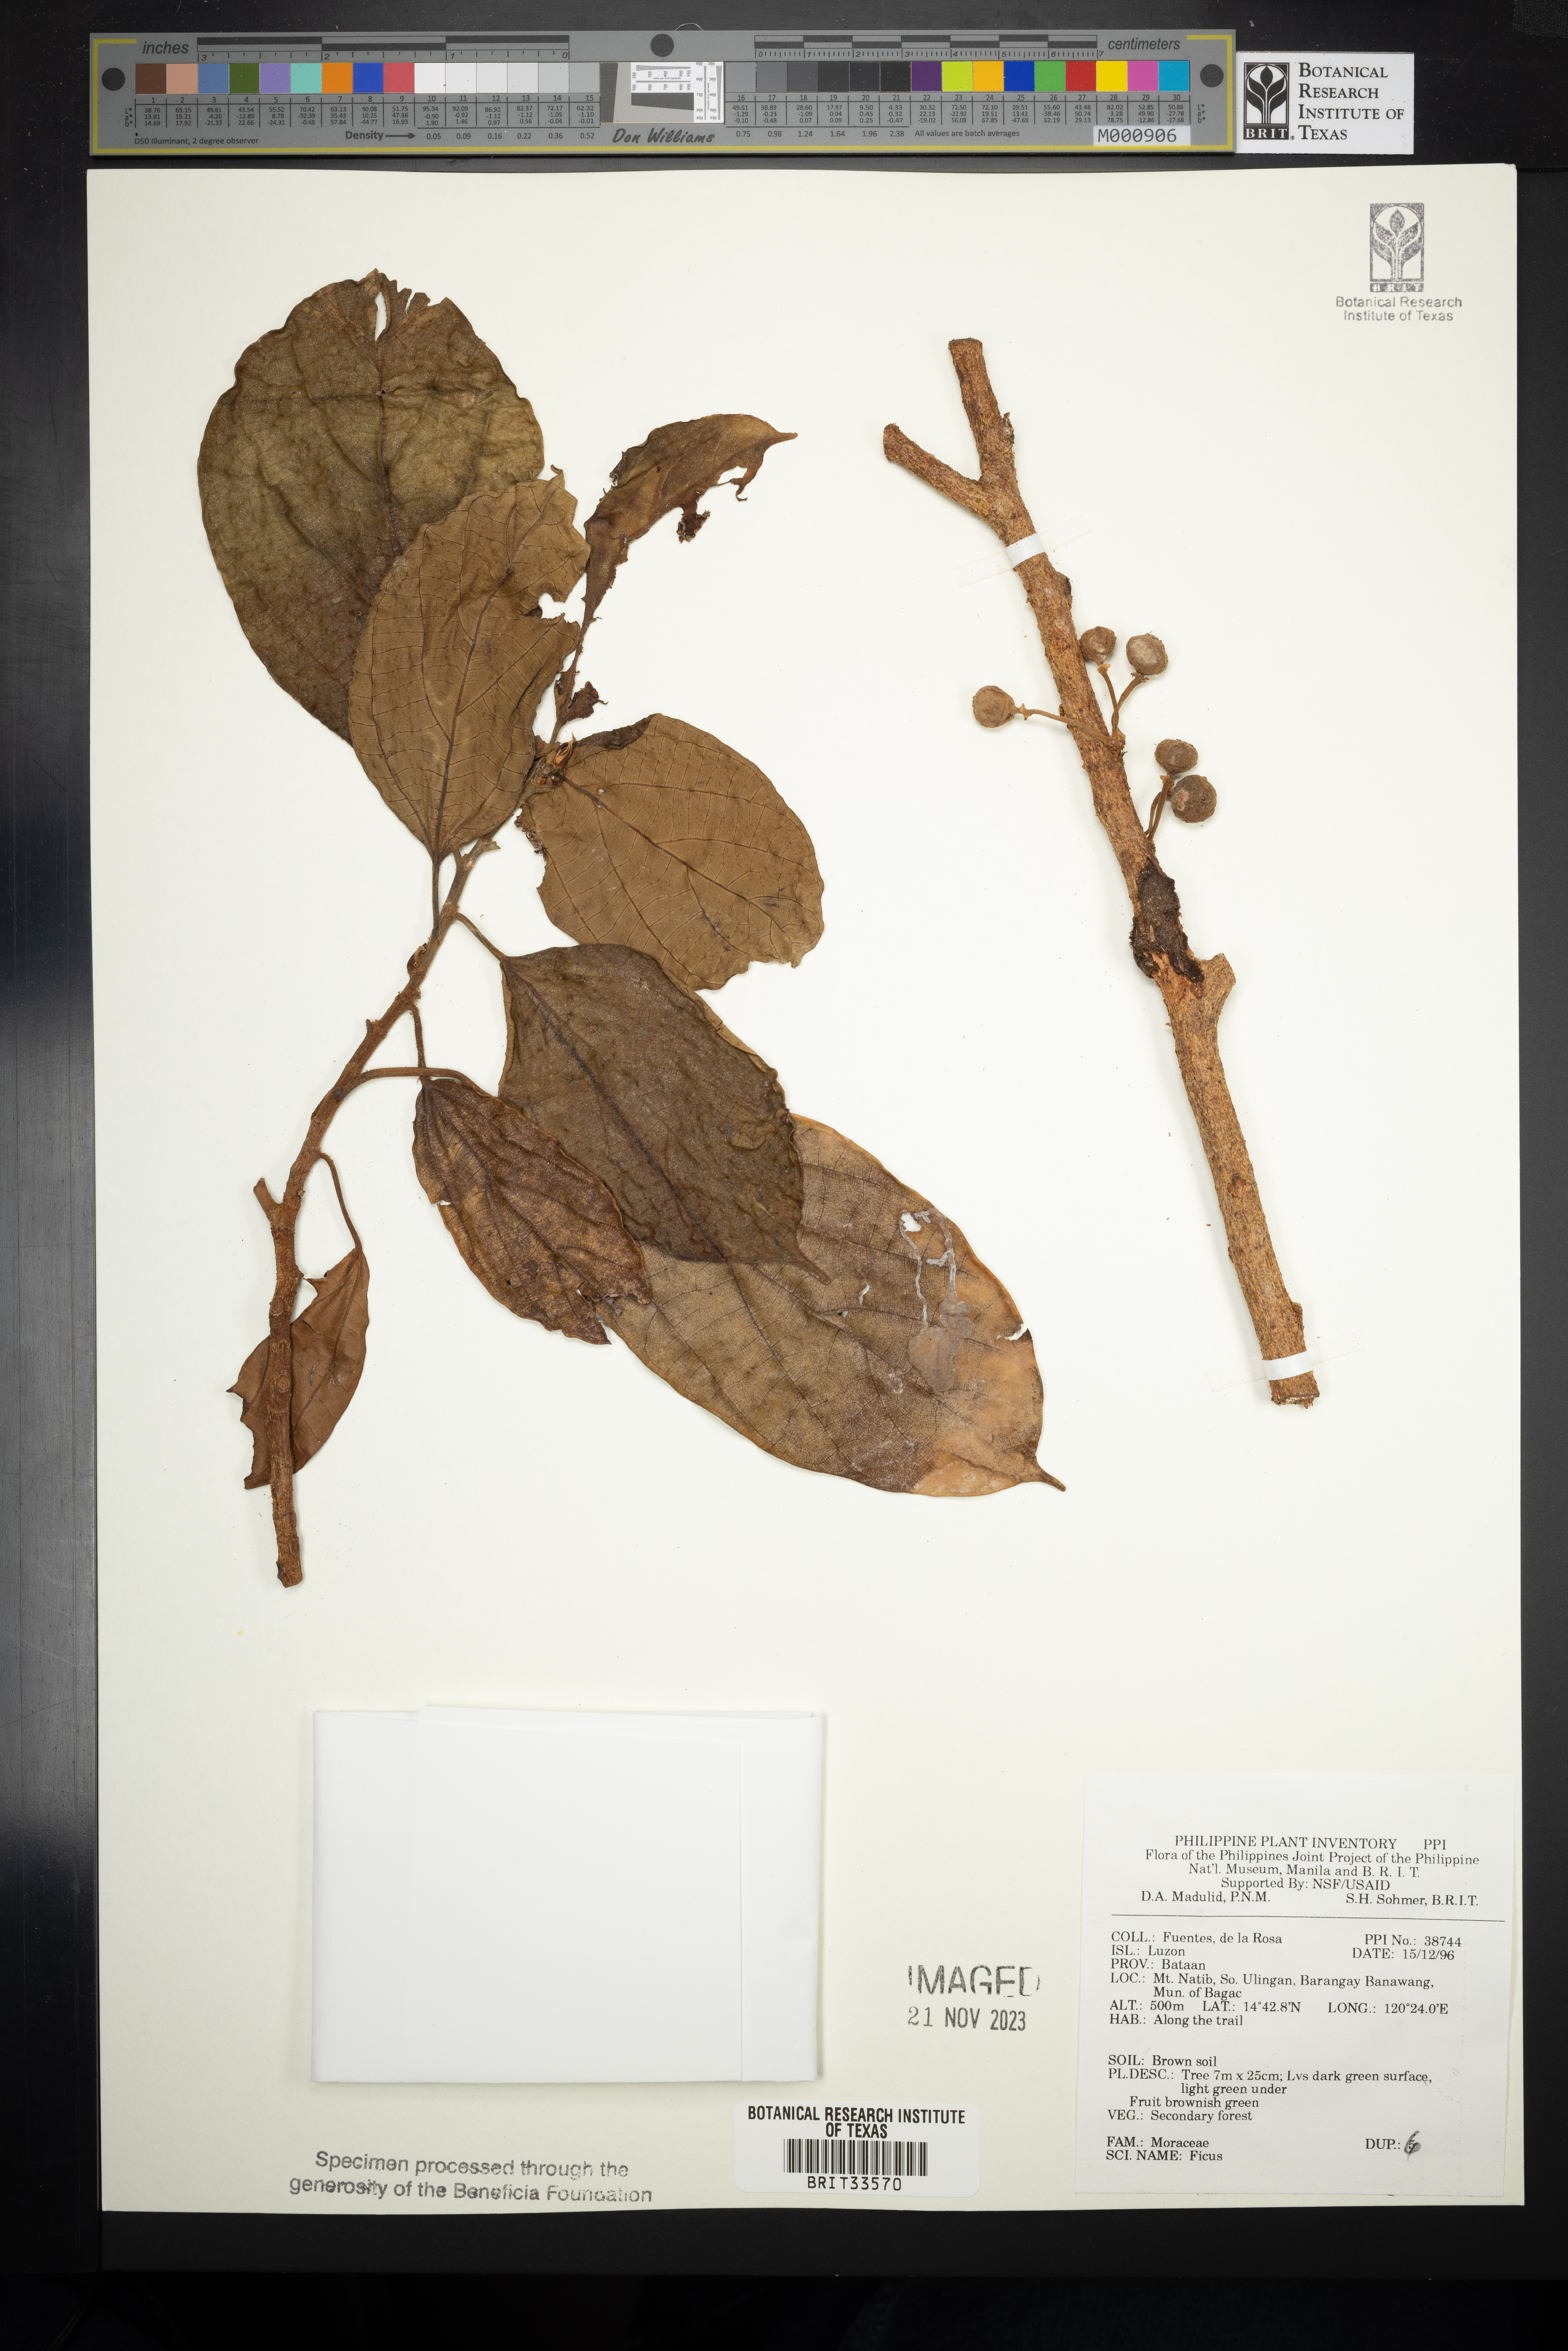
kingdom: Plantae
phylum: Tracheophyta
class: Magnoliopsida
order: Rosales
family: Moraceae
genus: Ficus
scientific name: Ficus
